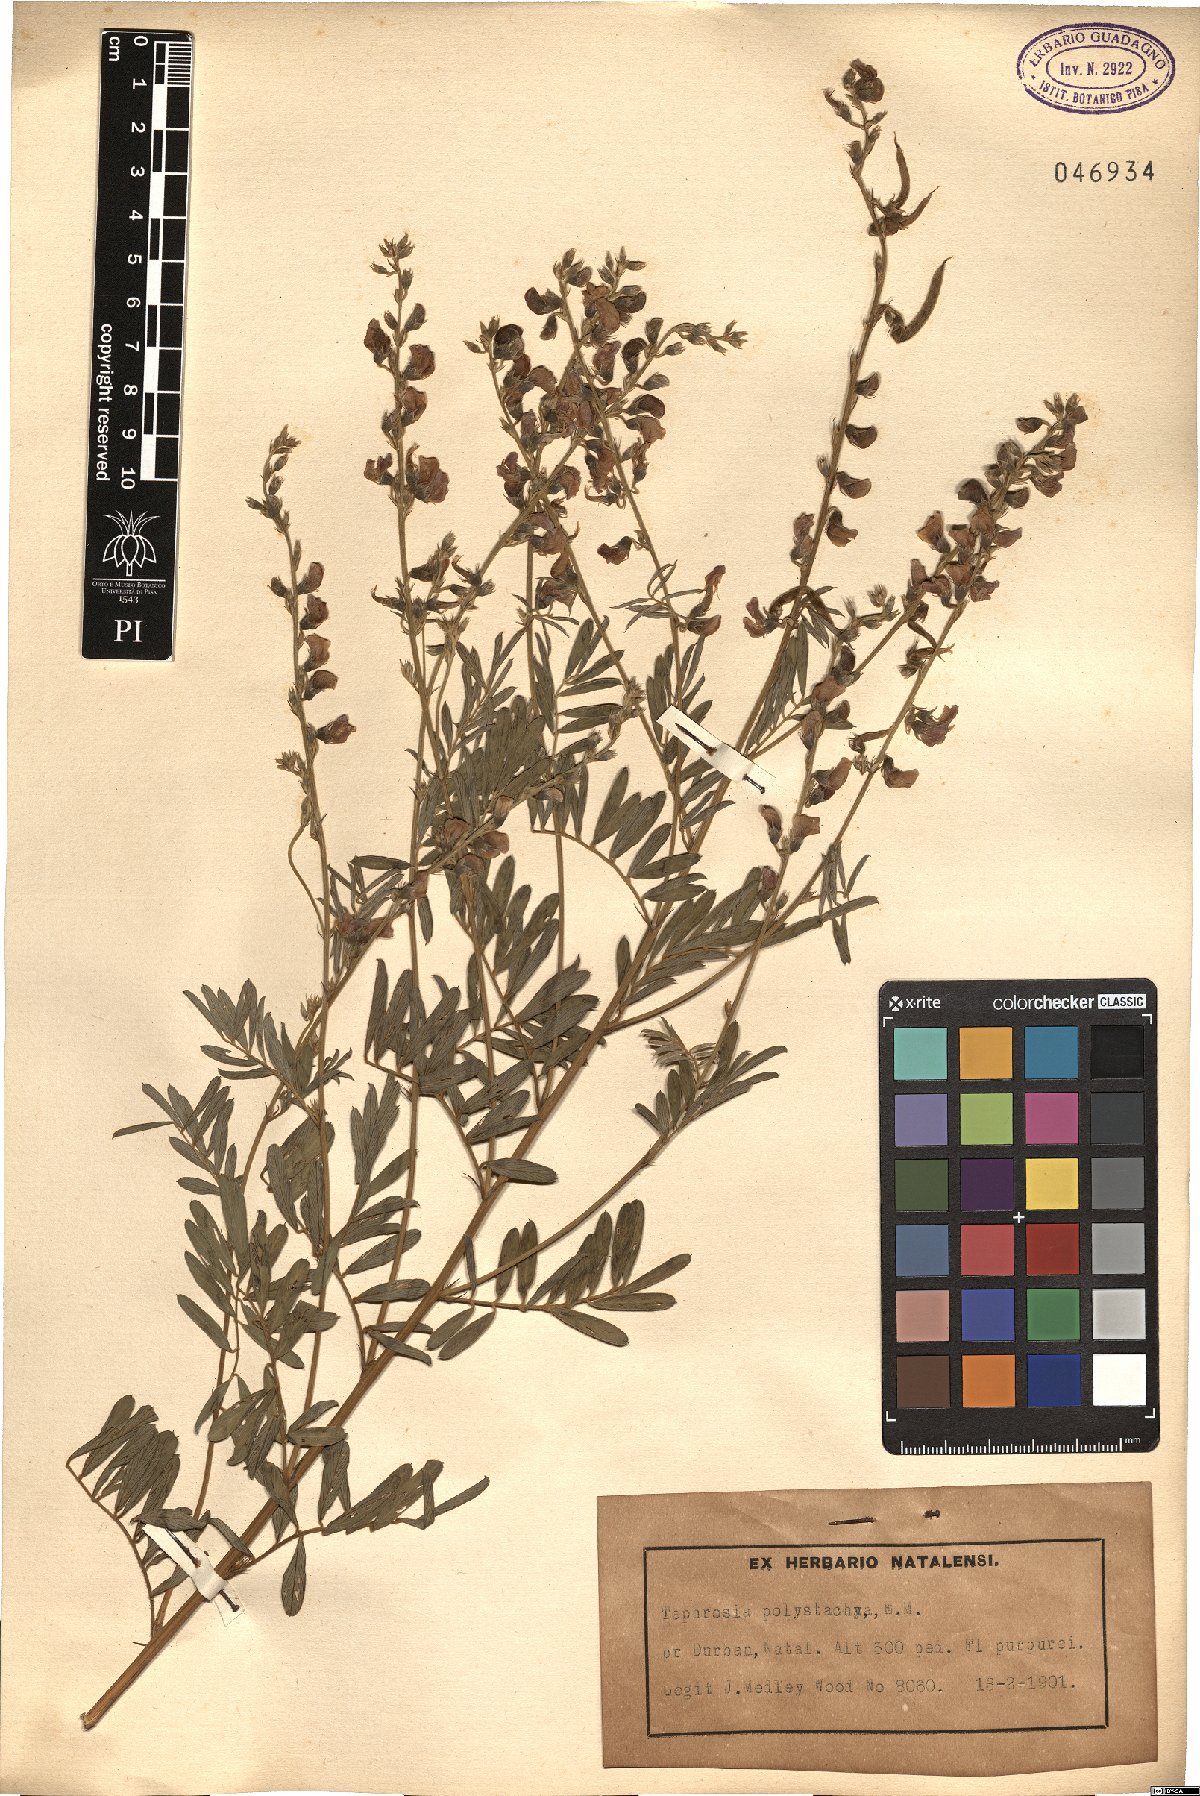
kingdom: Plantae
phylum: Tracheophyta
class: Magnoliopsida
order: Fabales
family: Fabaceae
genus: Tephrosia
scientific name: Tephrosia polystachya
